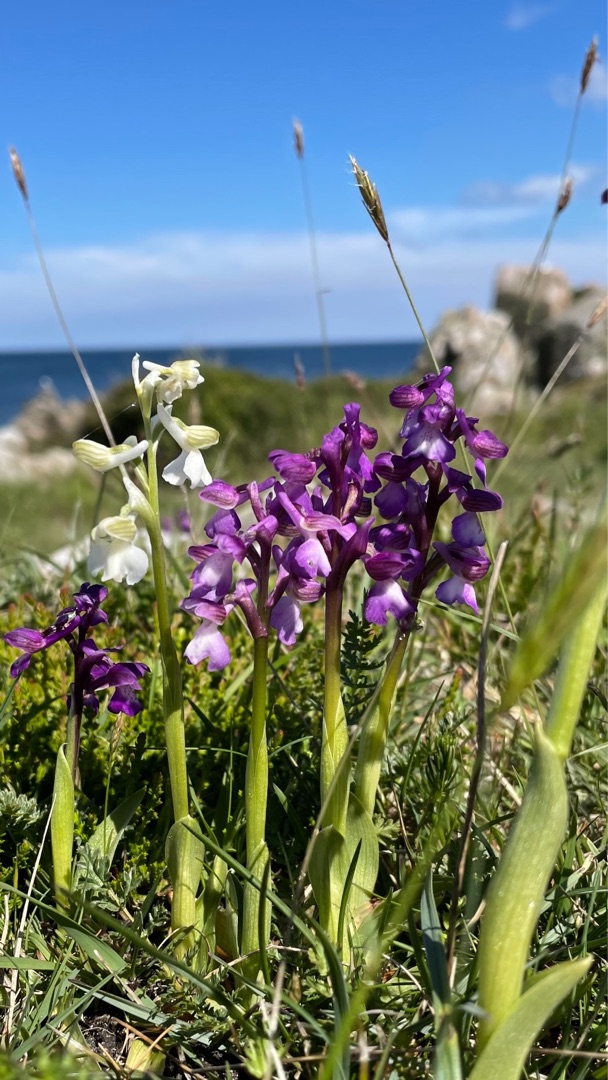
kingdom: Plantae
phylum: Tracheophyta
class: Liliopsida
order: Asparagales
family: Orchidaceae
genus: Anacamptis
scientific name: Anacamptis morio
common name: Salepgøgeurt
